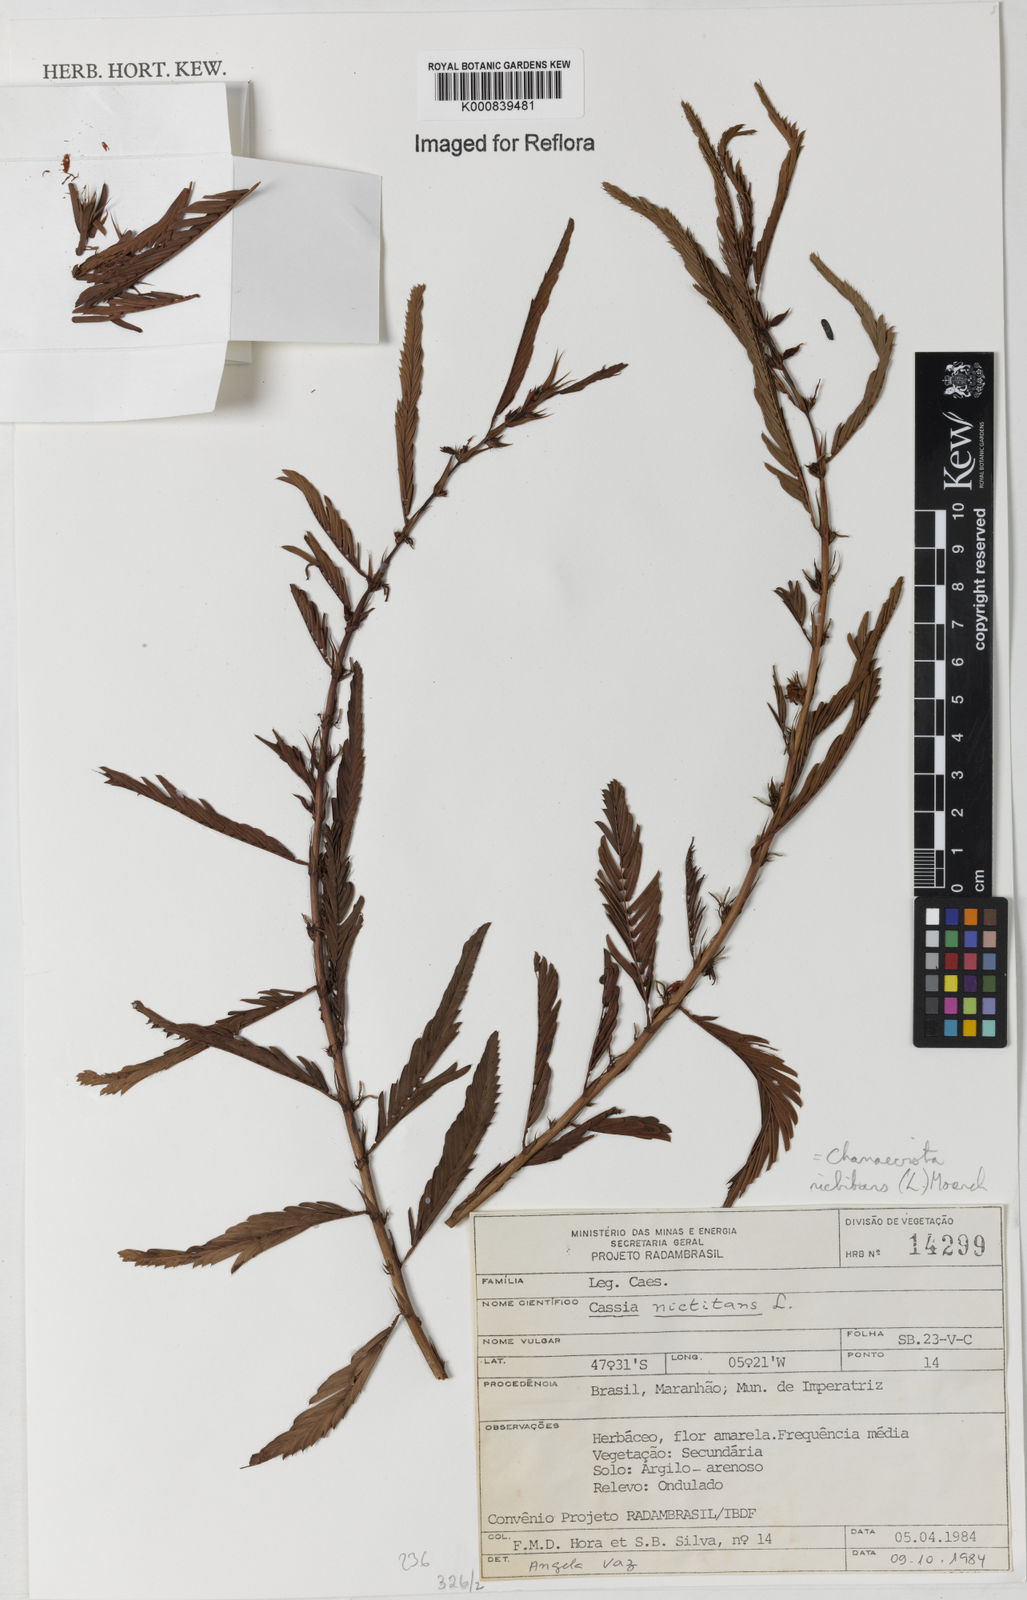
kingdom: Plantae
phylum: Tracheophyta
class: Magnoliopsida
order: Fabales
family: Fabaceae
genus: Chamaecrista
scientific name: Chamaecrista nictitans
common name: Sensitive cassia
